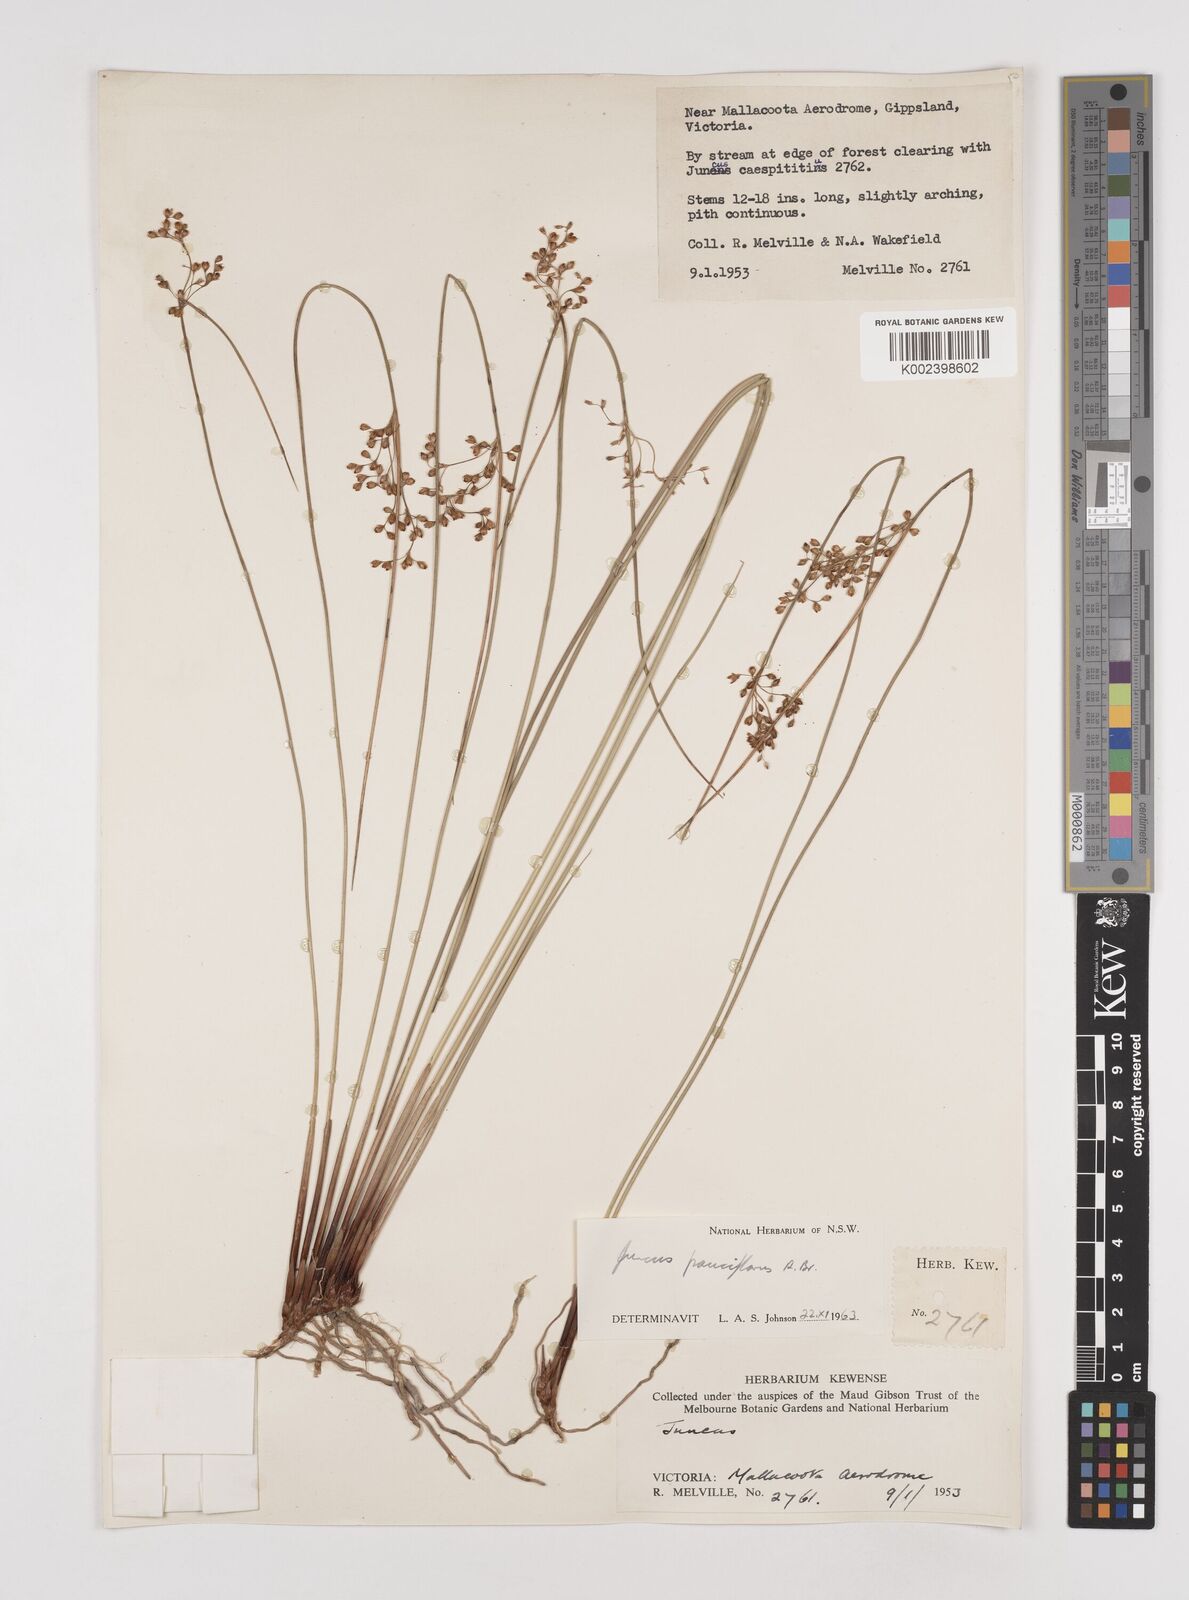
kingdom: Plantae
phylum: Tracheophyta
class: Liliopsida
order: Poales
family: Juncaceae
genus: Juncus
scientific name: Juncus pauciflorus
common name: Loose-flowered rush
